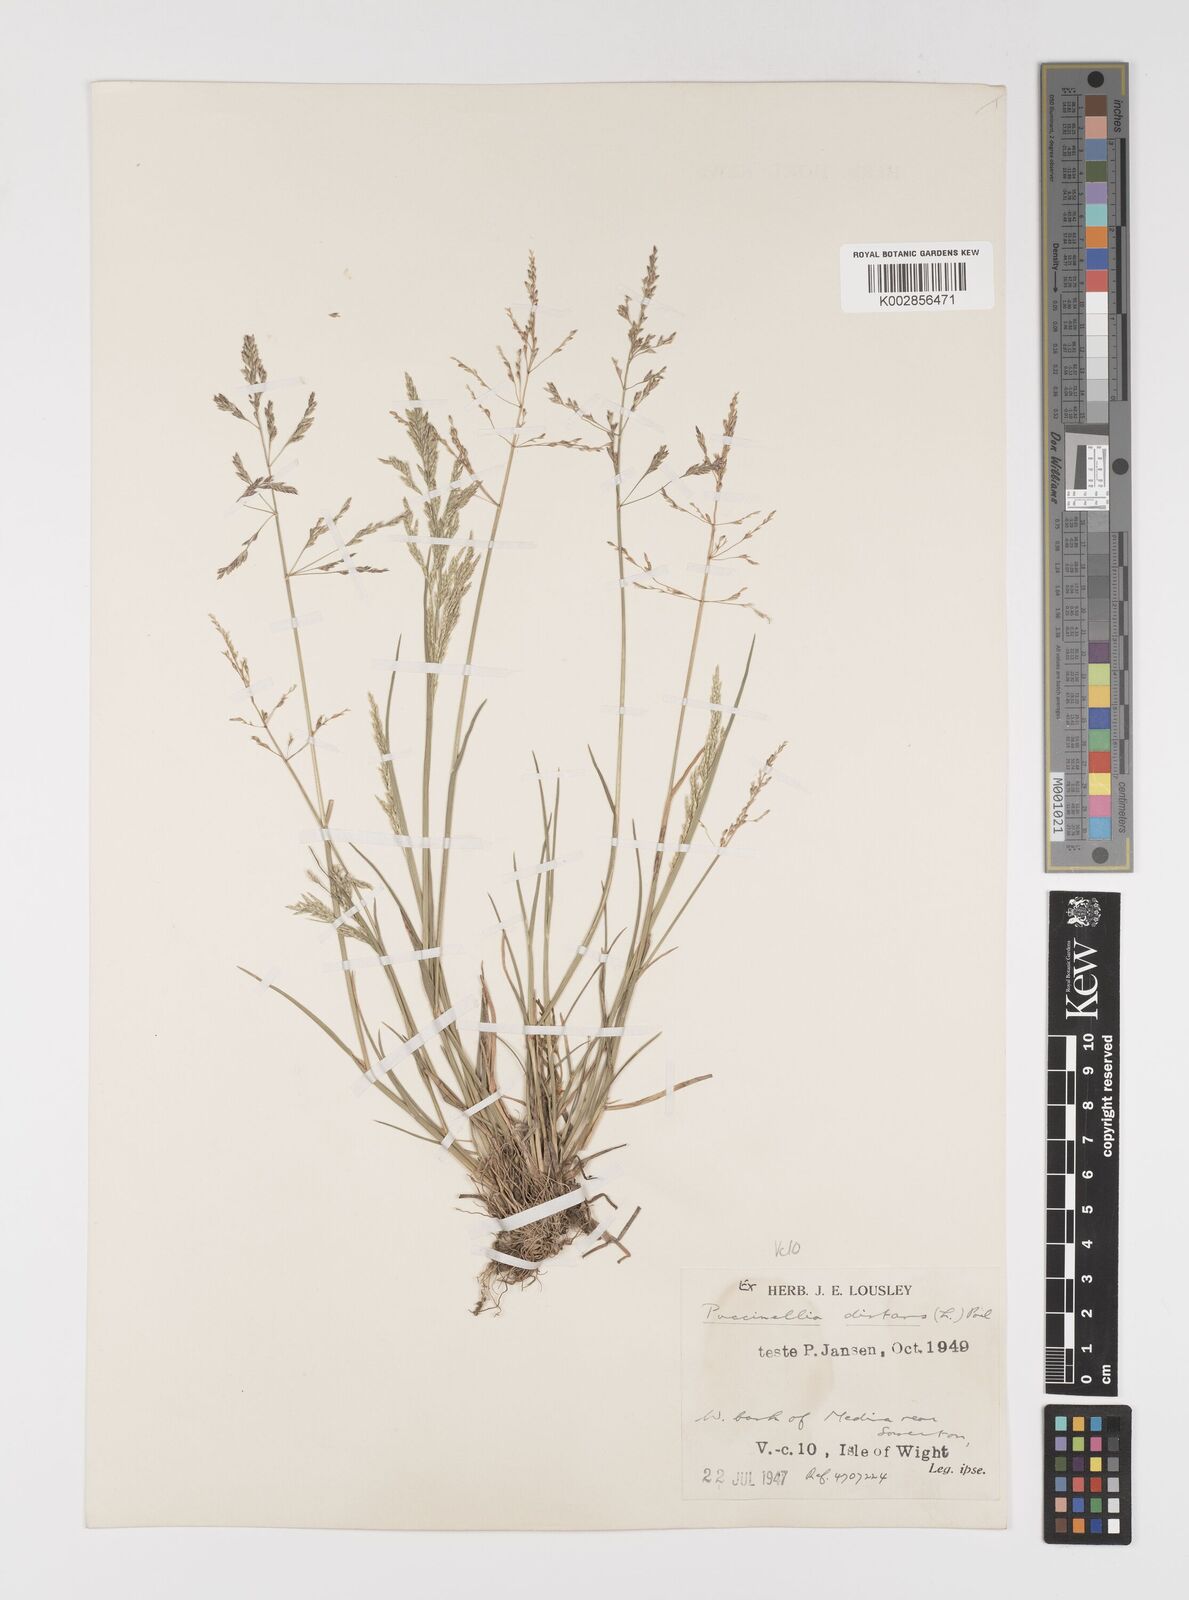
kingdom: Plantae
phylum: Tracheophyta
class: Liliopsida
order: Poales
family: Poaceae
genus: Puccinellia
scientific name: Puccinellia distans
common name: Weeping alkaligrass
